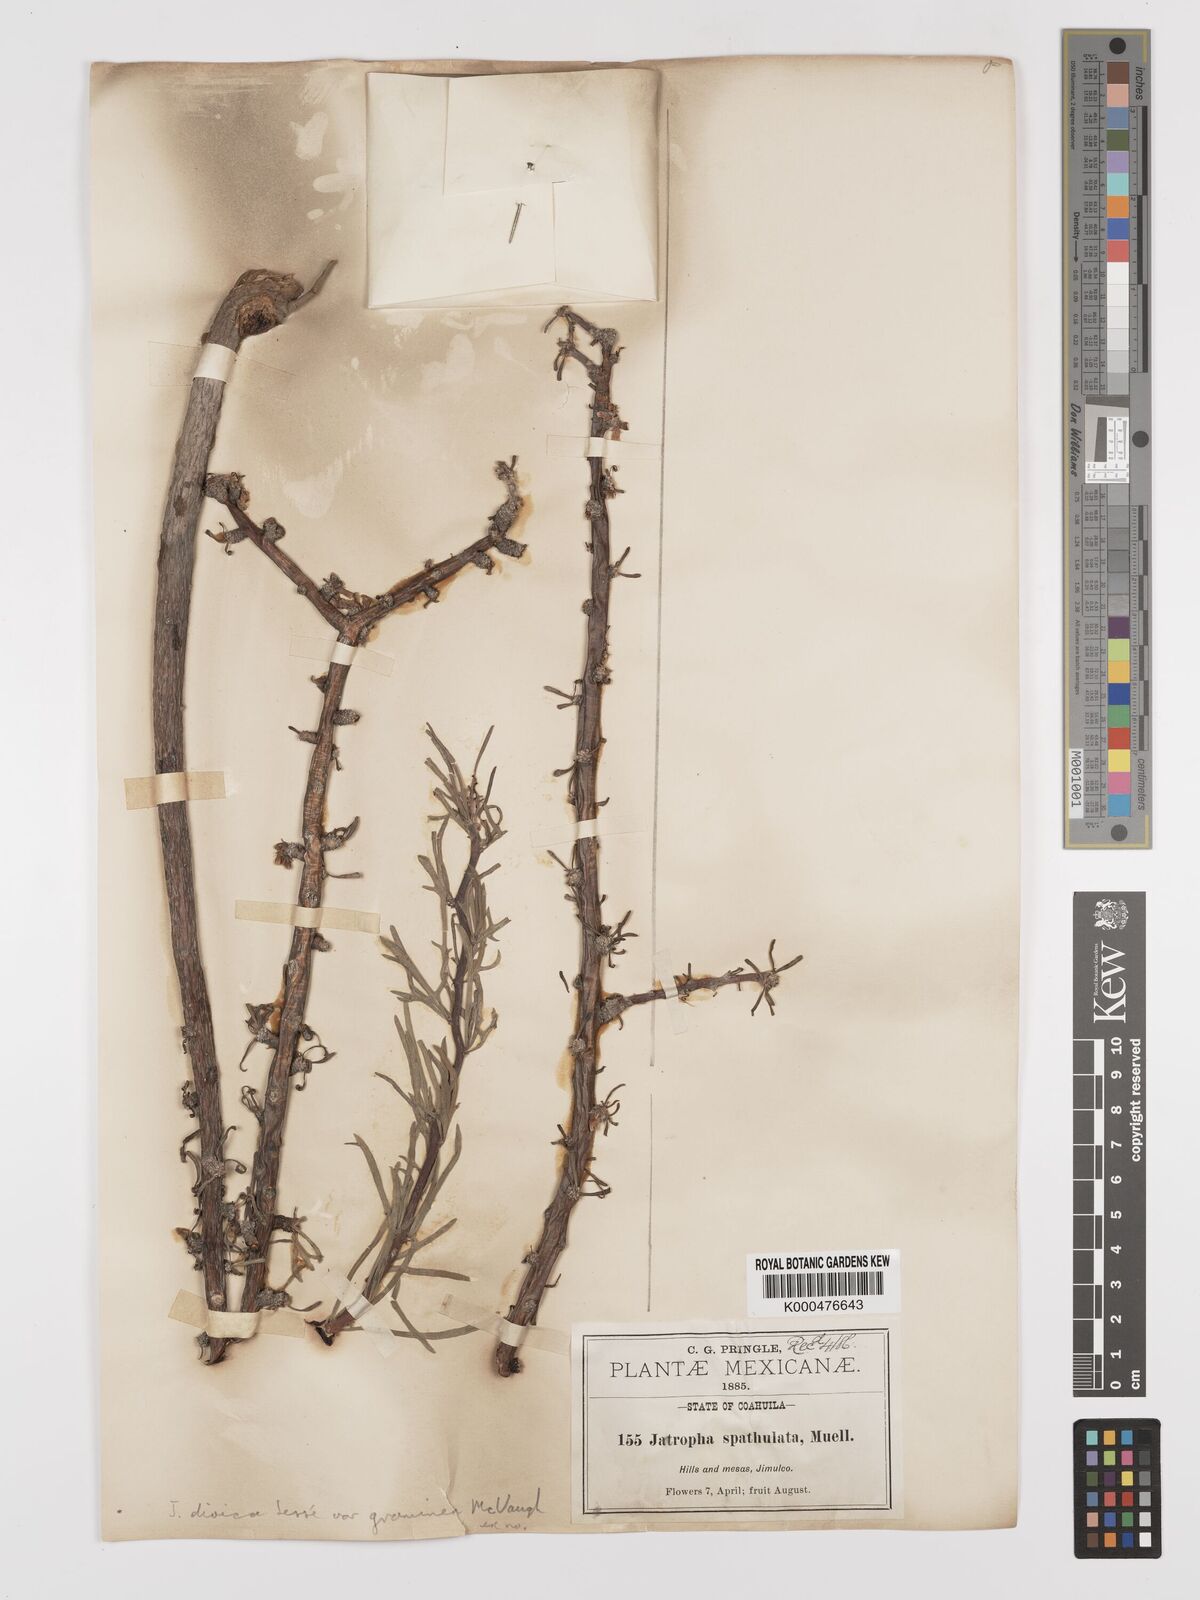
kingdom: Plantae
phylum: Tracheophyta
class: Magnoliopsida
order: Malpighiales
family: Euphorbiaceae
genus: Jatropha
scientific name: Jatropha
